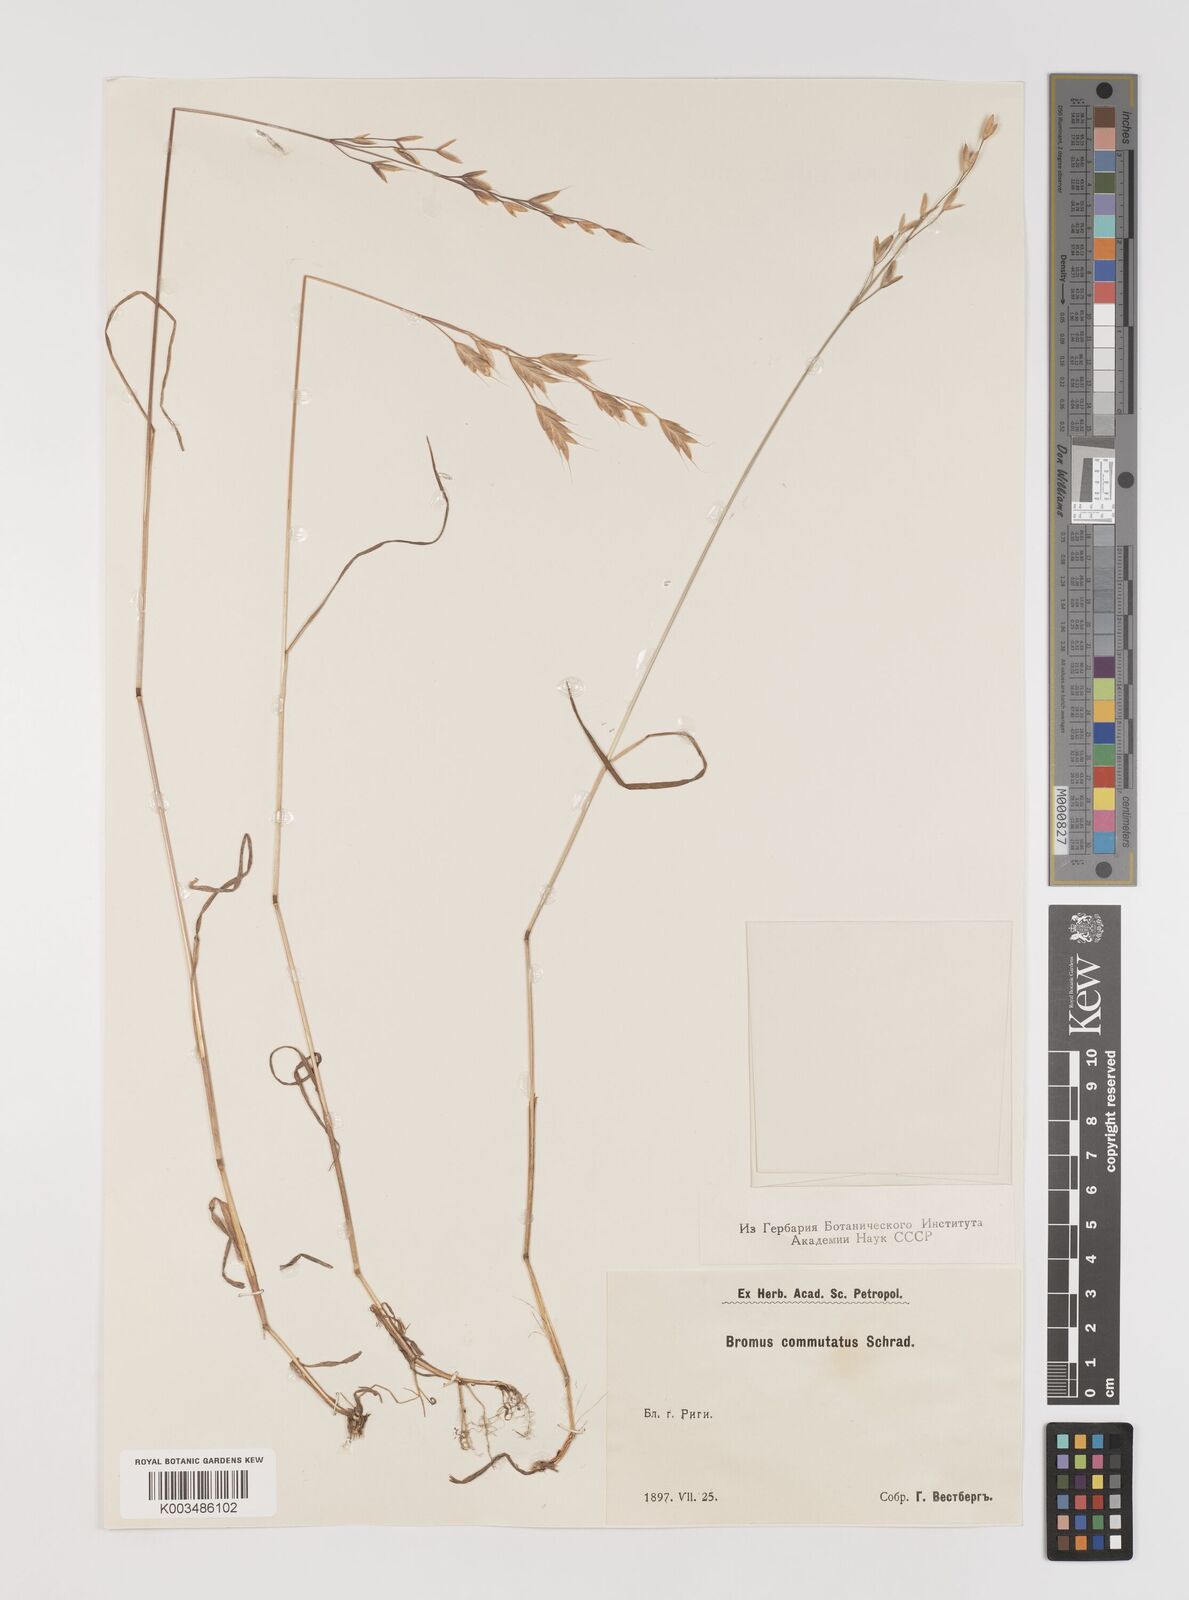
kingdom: Plantae
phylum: Tracheophyta
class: Liliopsida
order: Poales
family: Poaceae
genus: Bromus
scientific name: Bromus racemosus
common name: Bald brome
